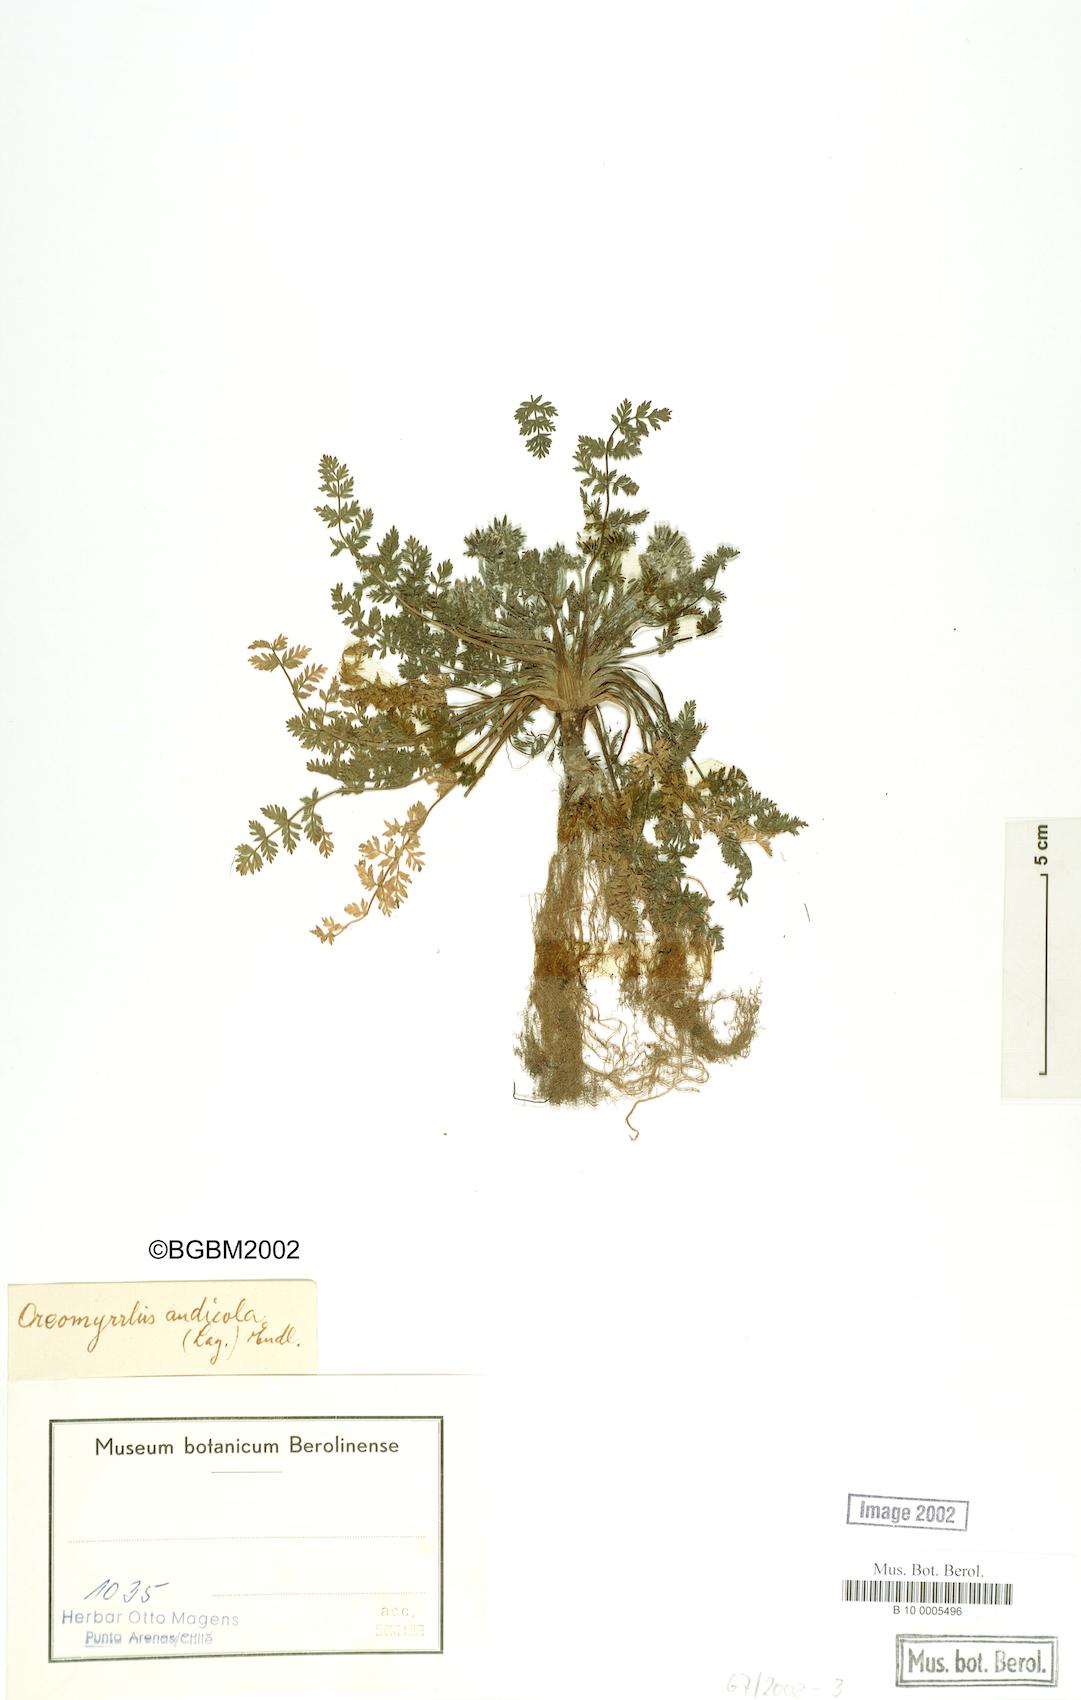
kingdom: Plantae
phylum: Tracheophyta
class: Magnoliopsida
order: Apiales
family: Apiaceae
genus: Chaerophyllum
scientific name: Chaerophyllum daucoides
